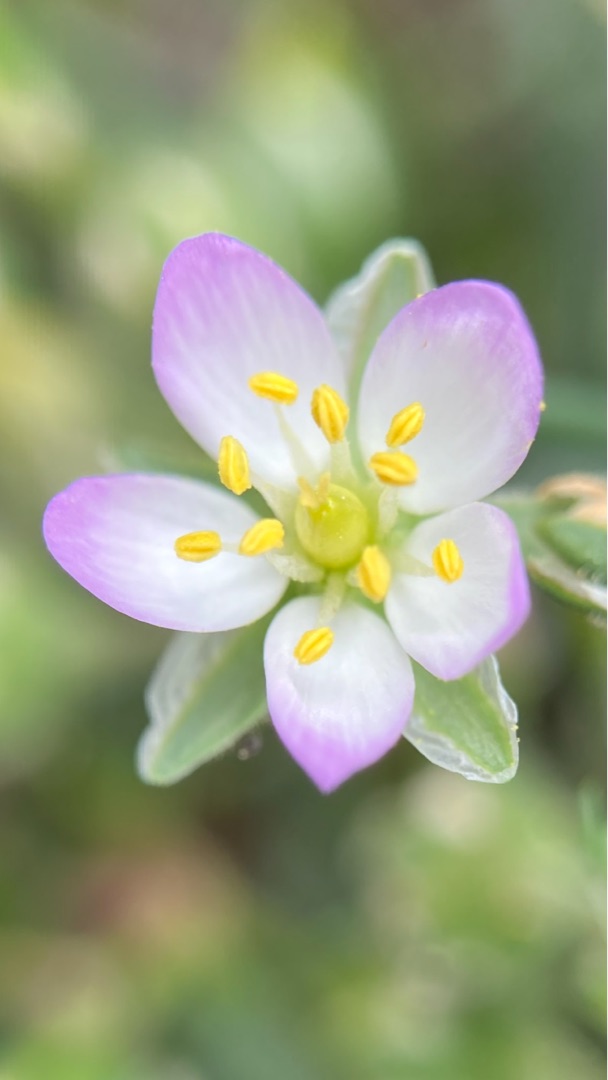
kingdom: Plantae
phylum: Tracheophyta
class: Magnoliopsida
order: Caryophyllales
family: Caryophyllaceae
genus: Spergularia
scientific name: Spergularia media
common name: Vingefrøet hindeknæ
